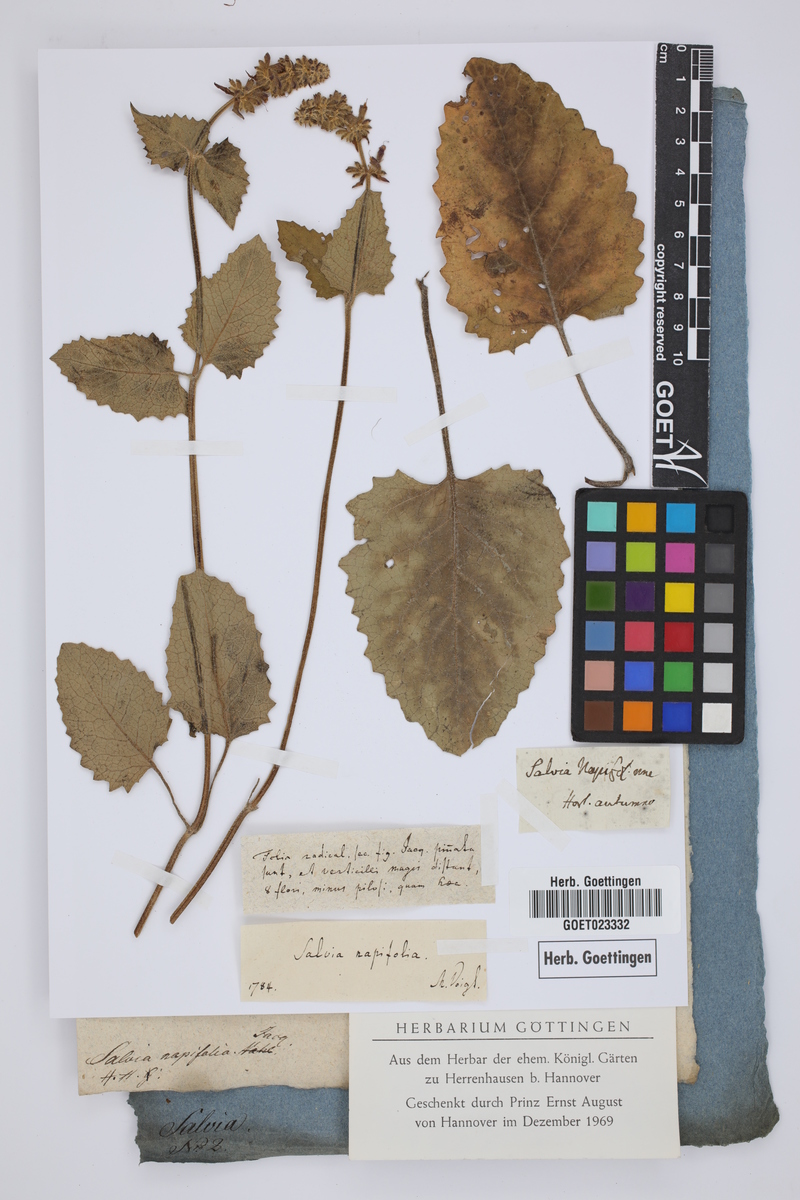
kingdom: Plantae
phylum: Tracheophyta
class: Magnoliopsida
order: Lamiales
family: Lamiaceae
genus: Salvia
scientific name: Salvia napifolia
